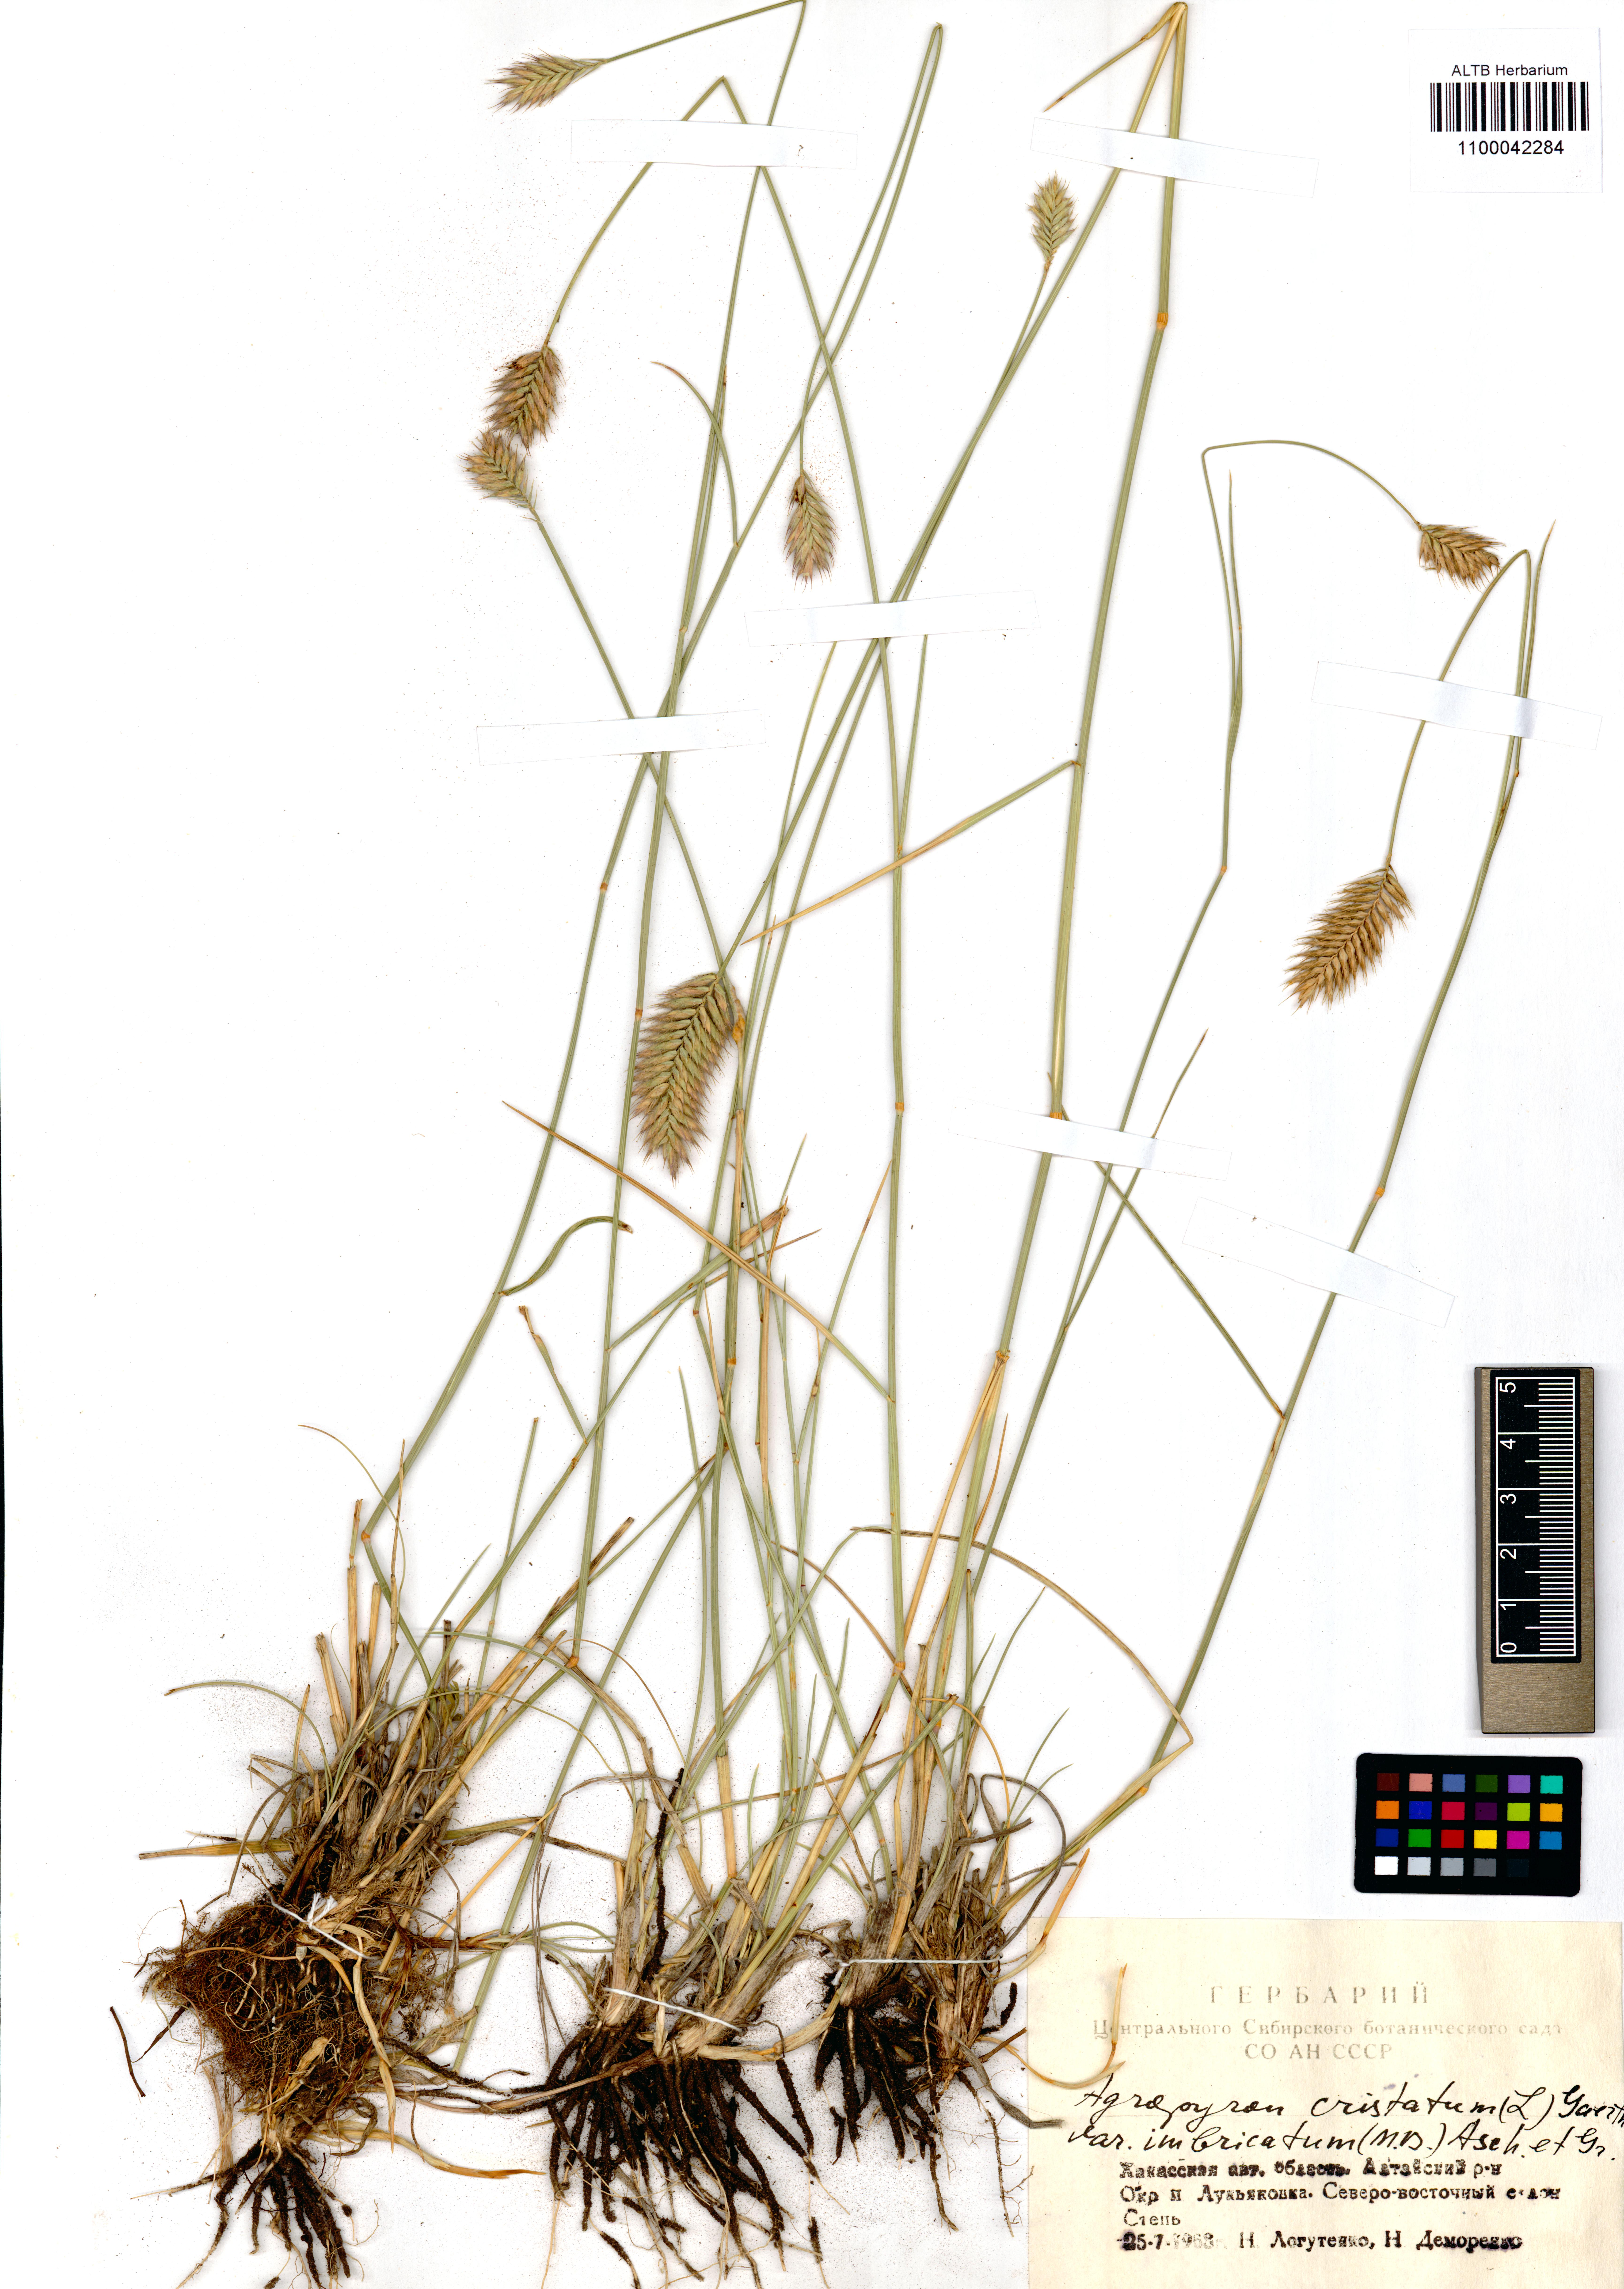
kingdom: Plantae
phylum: Tracheophyta
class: Liliopsida
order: Poales
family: Poaceae
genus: Agropyron
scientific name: Agropyron cristatum
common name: Crested wheatgrass
